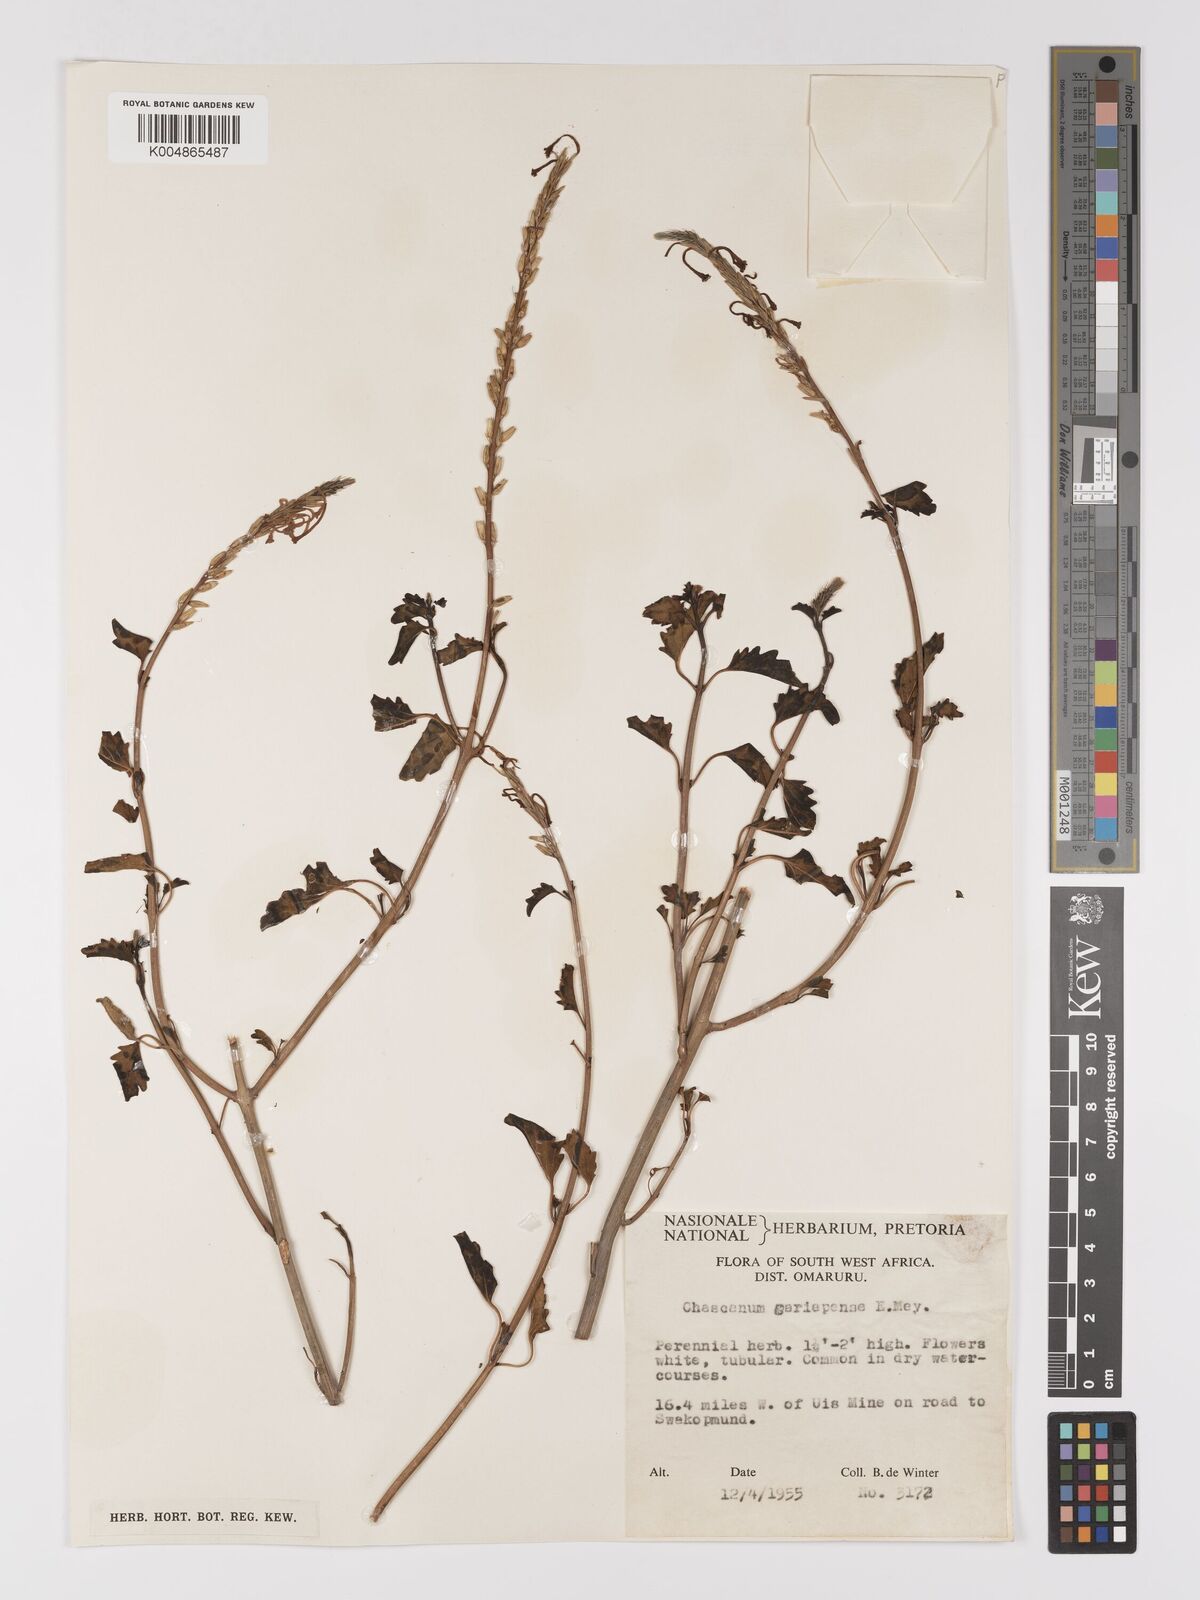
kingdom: Plantae
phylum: Tracheophyta
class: Magnoliopsida
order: Lamiales
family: Verbenaceae
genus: Chascanum
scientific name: Chascanum garipense
